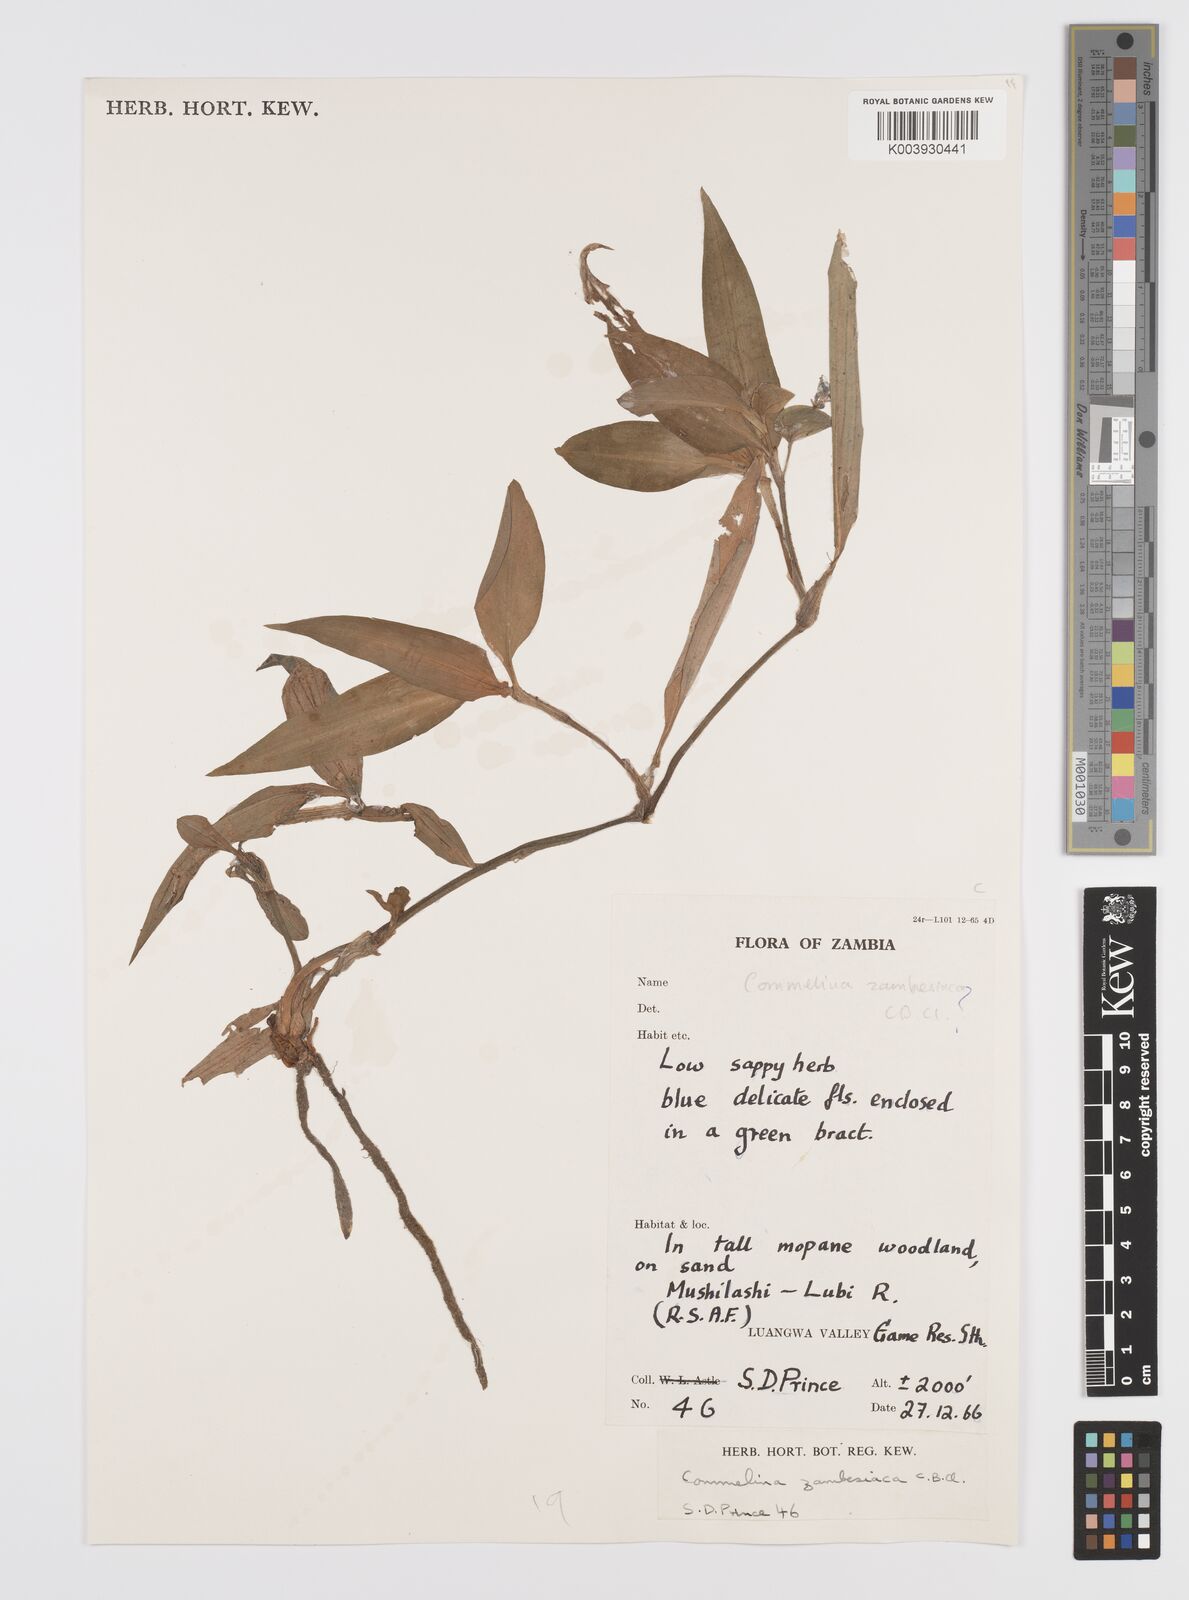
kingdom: Plantae
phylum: Tracheophyta
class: Liliopsida
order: Commelinales
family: Commelinaceae
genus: Commelina
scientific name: Commelina zambesica
